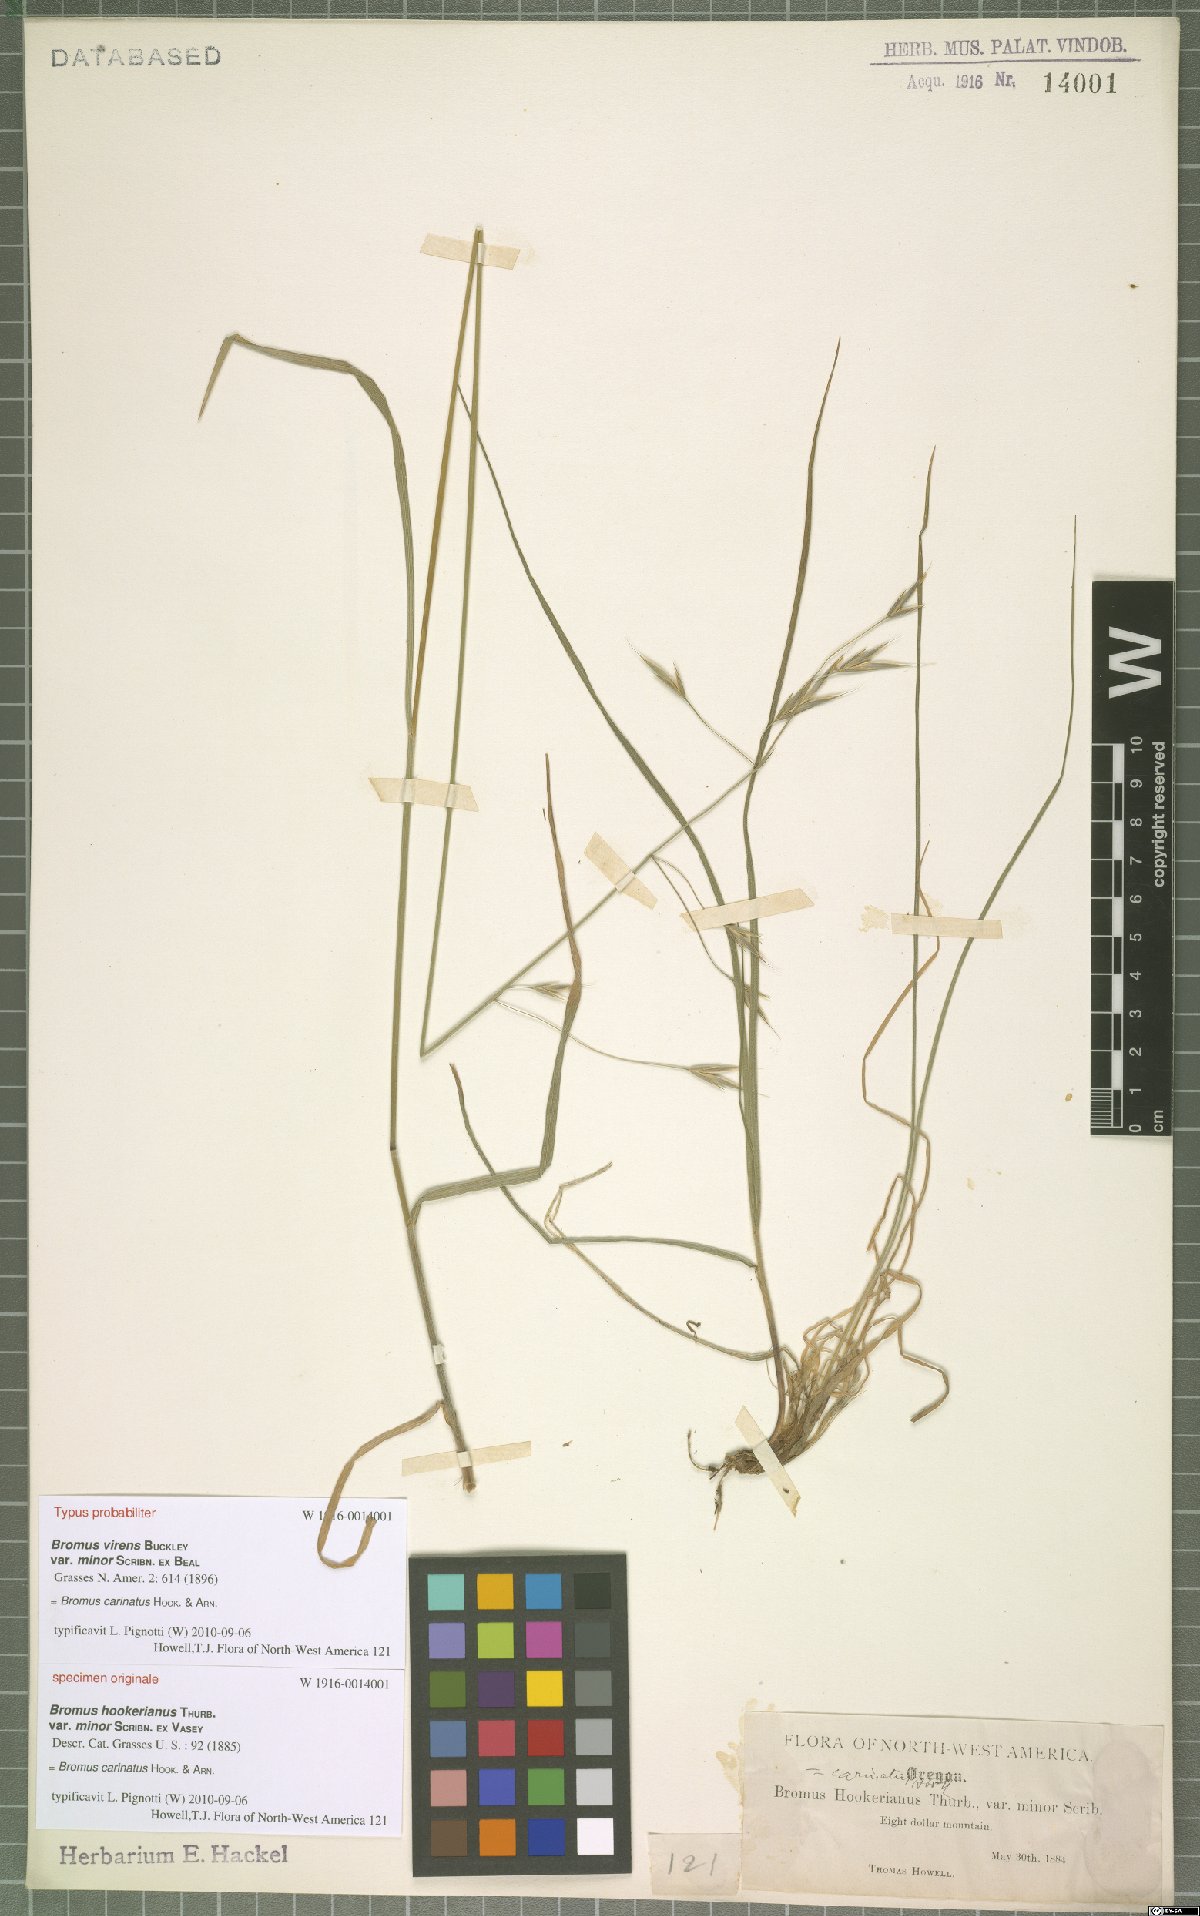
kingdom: Plantae
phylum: Tracheophyta
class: Liliopsida
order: Poales
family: Poaceae
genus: Bromus
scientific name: Bromus carinatus
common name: Mountain brome
